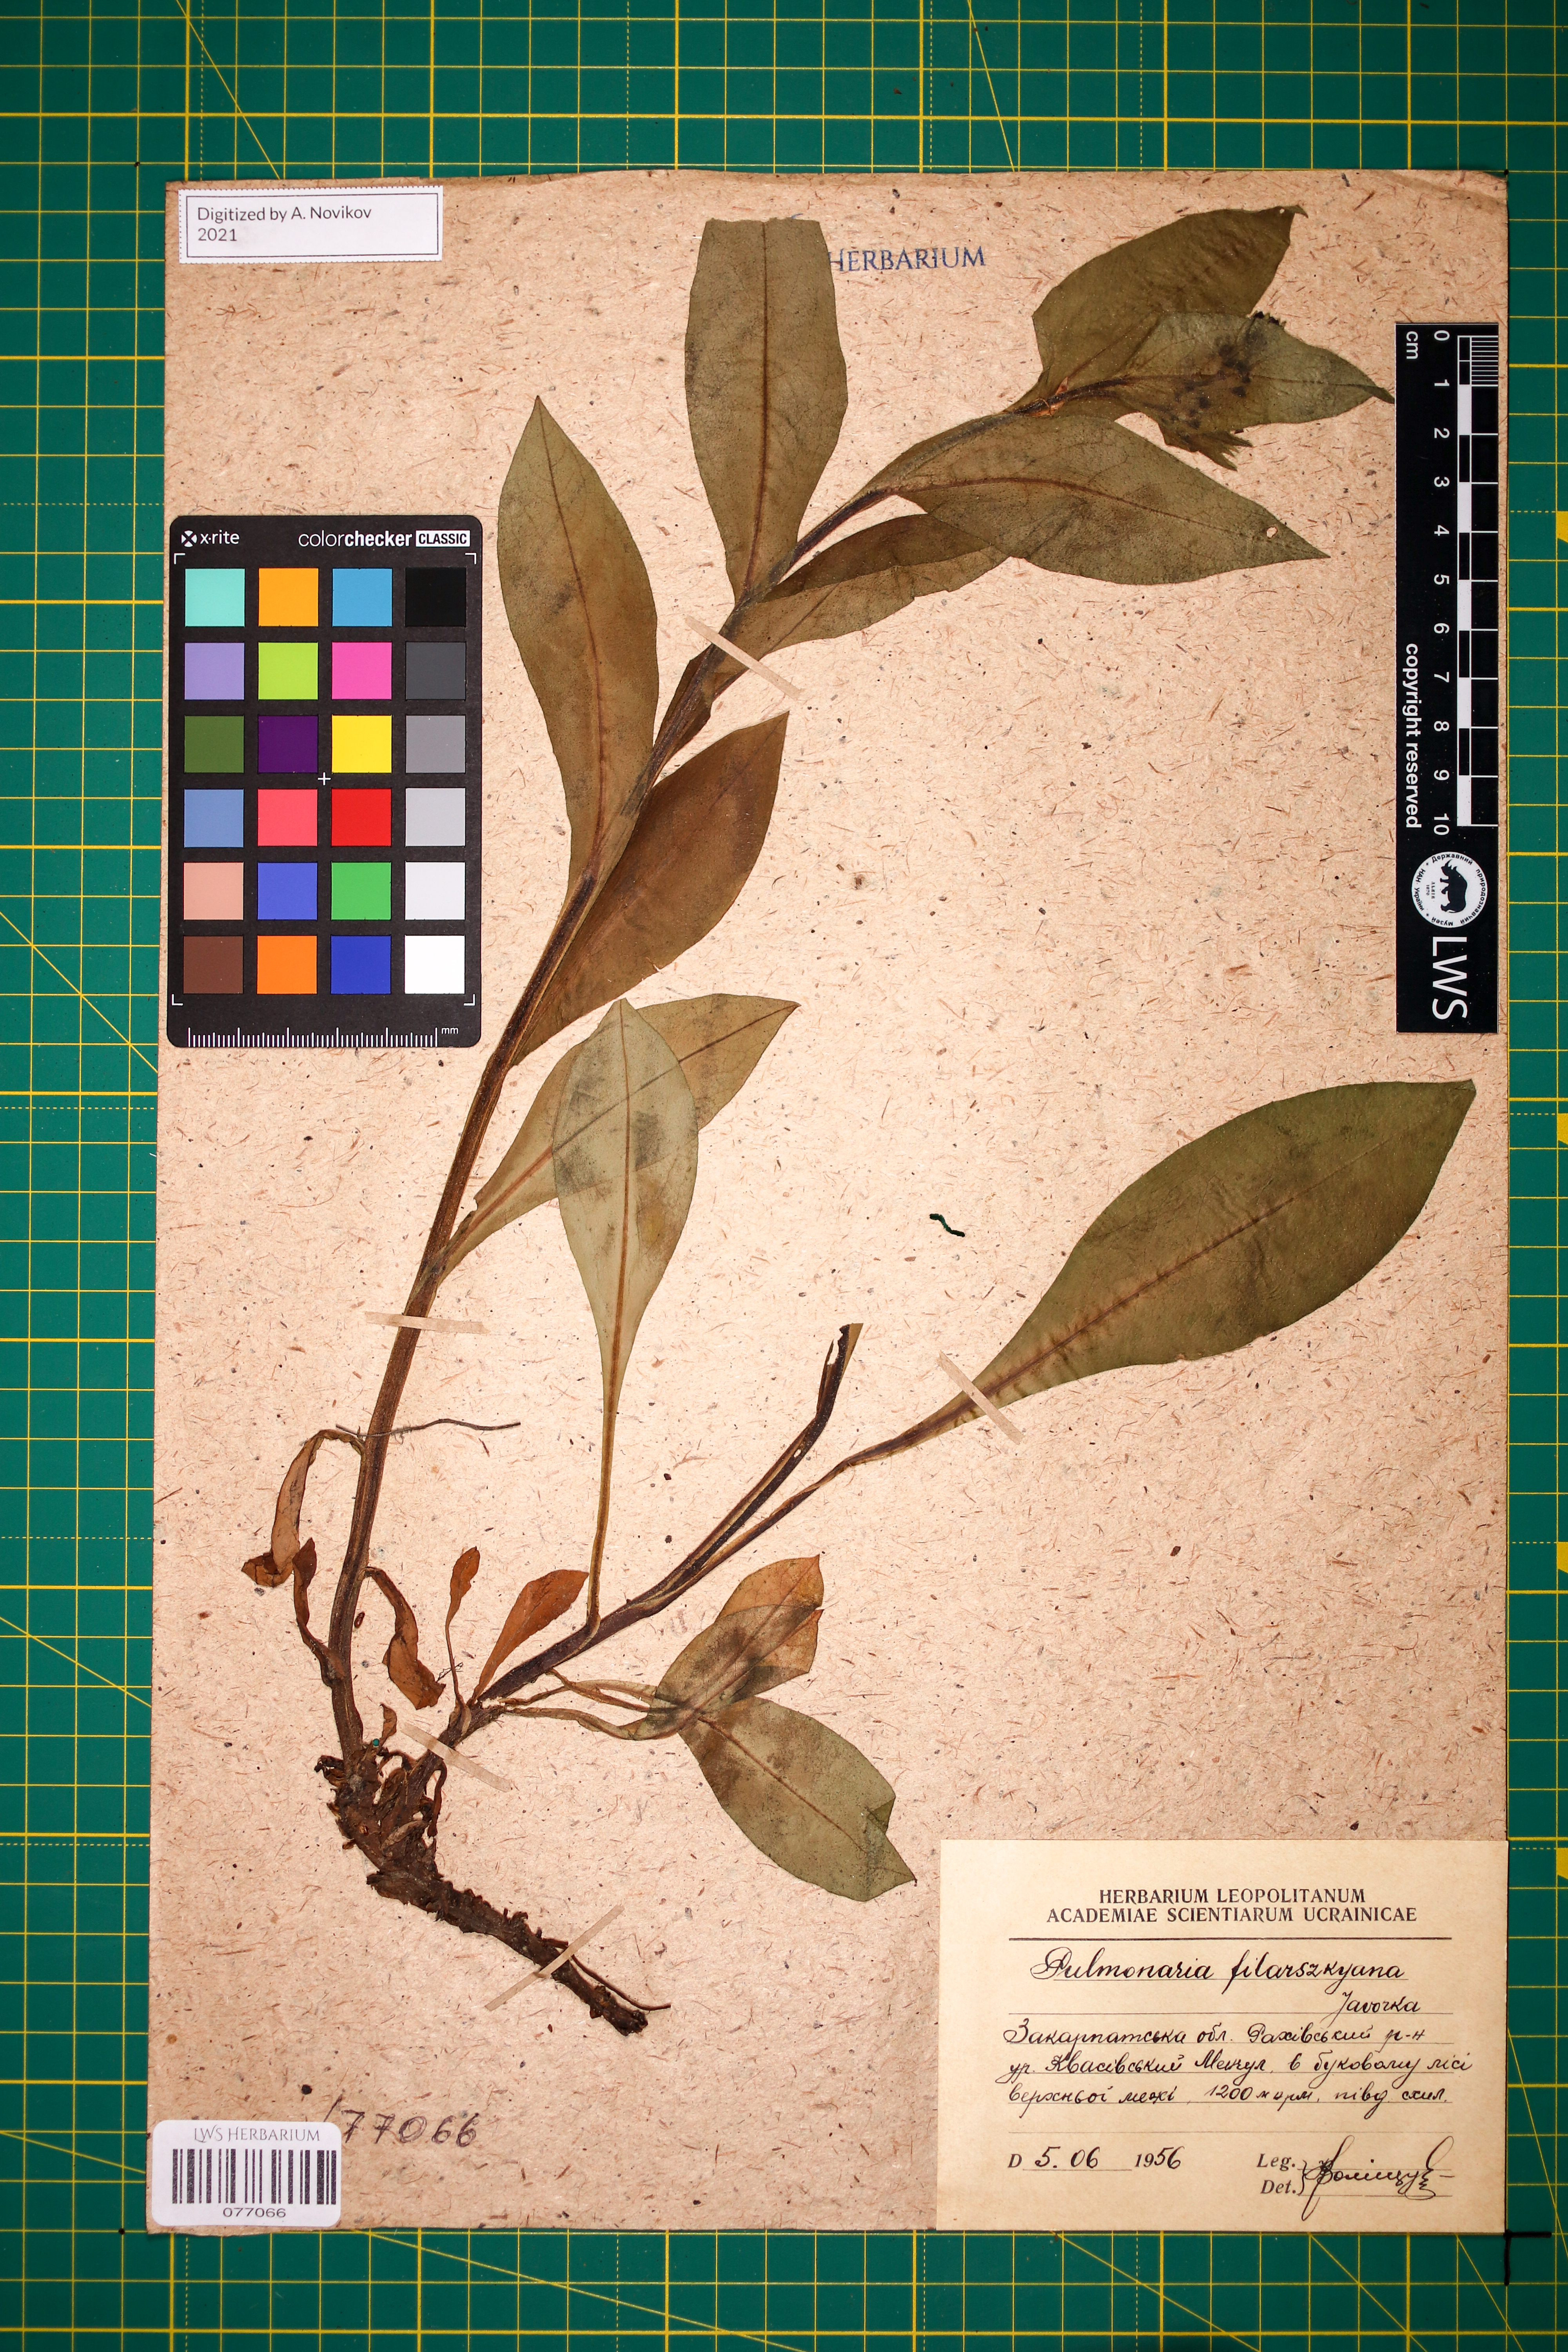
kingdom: Plantae
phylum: Tracheophyta
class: Magnoliopsida
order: Boraginales
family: Boraginaceae
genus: Pulmonaria
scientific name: Pulmonaria filarszkyana
